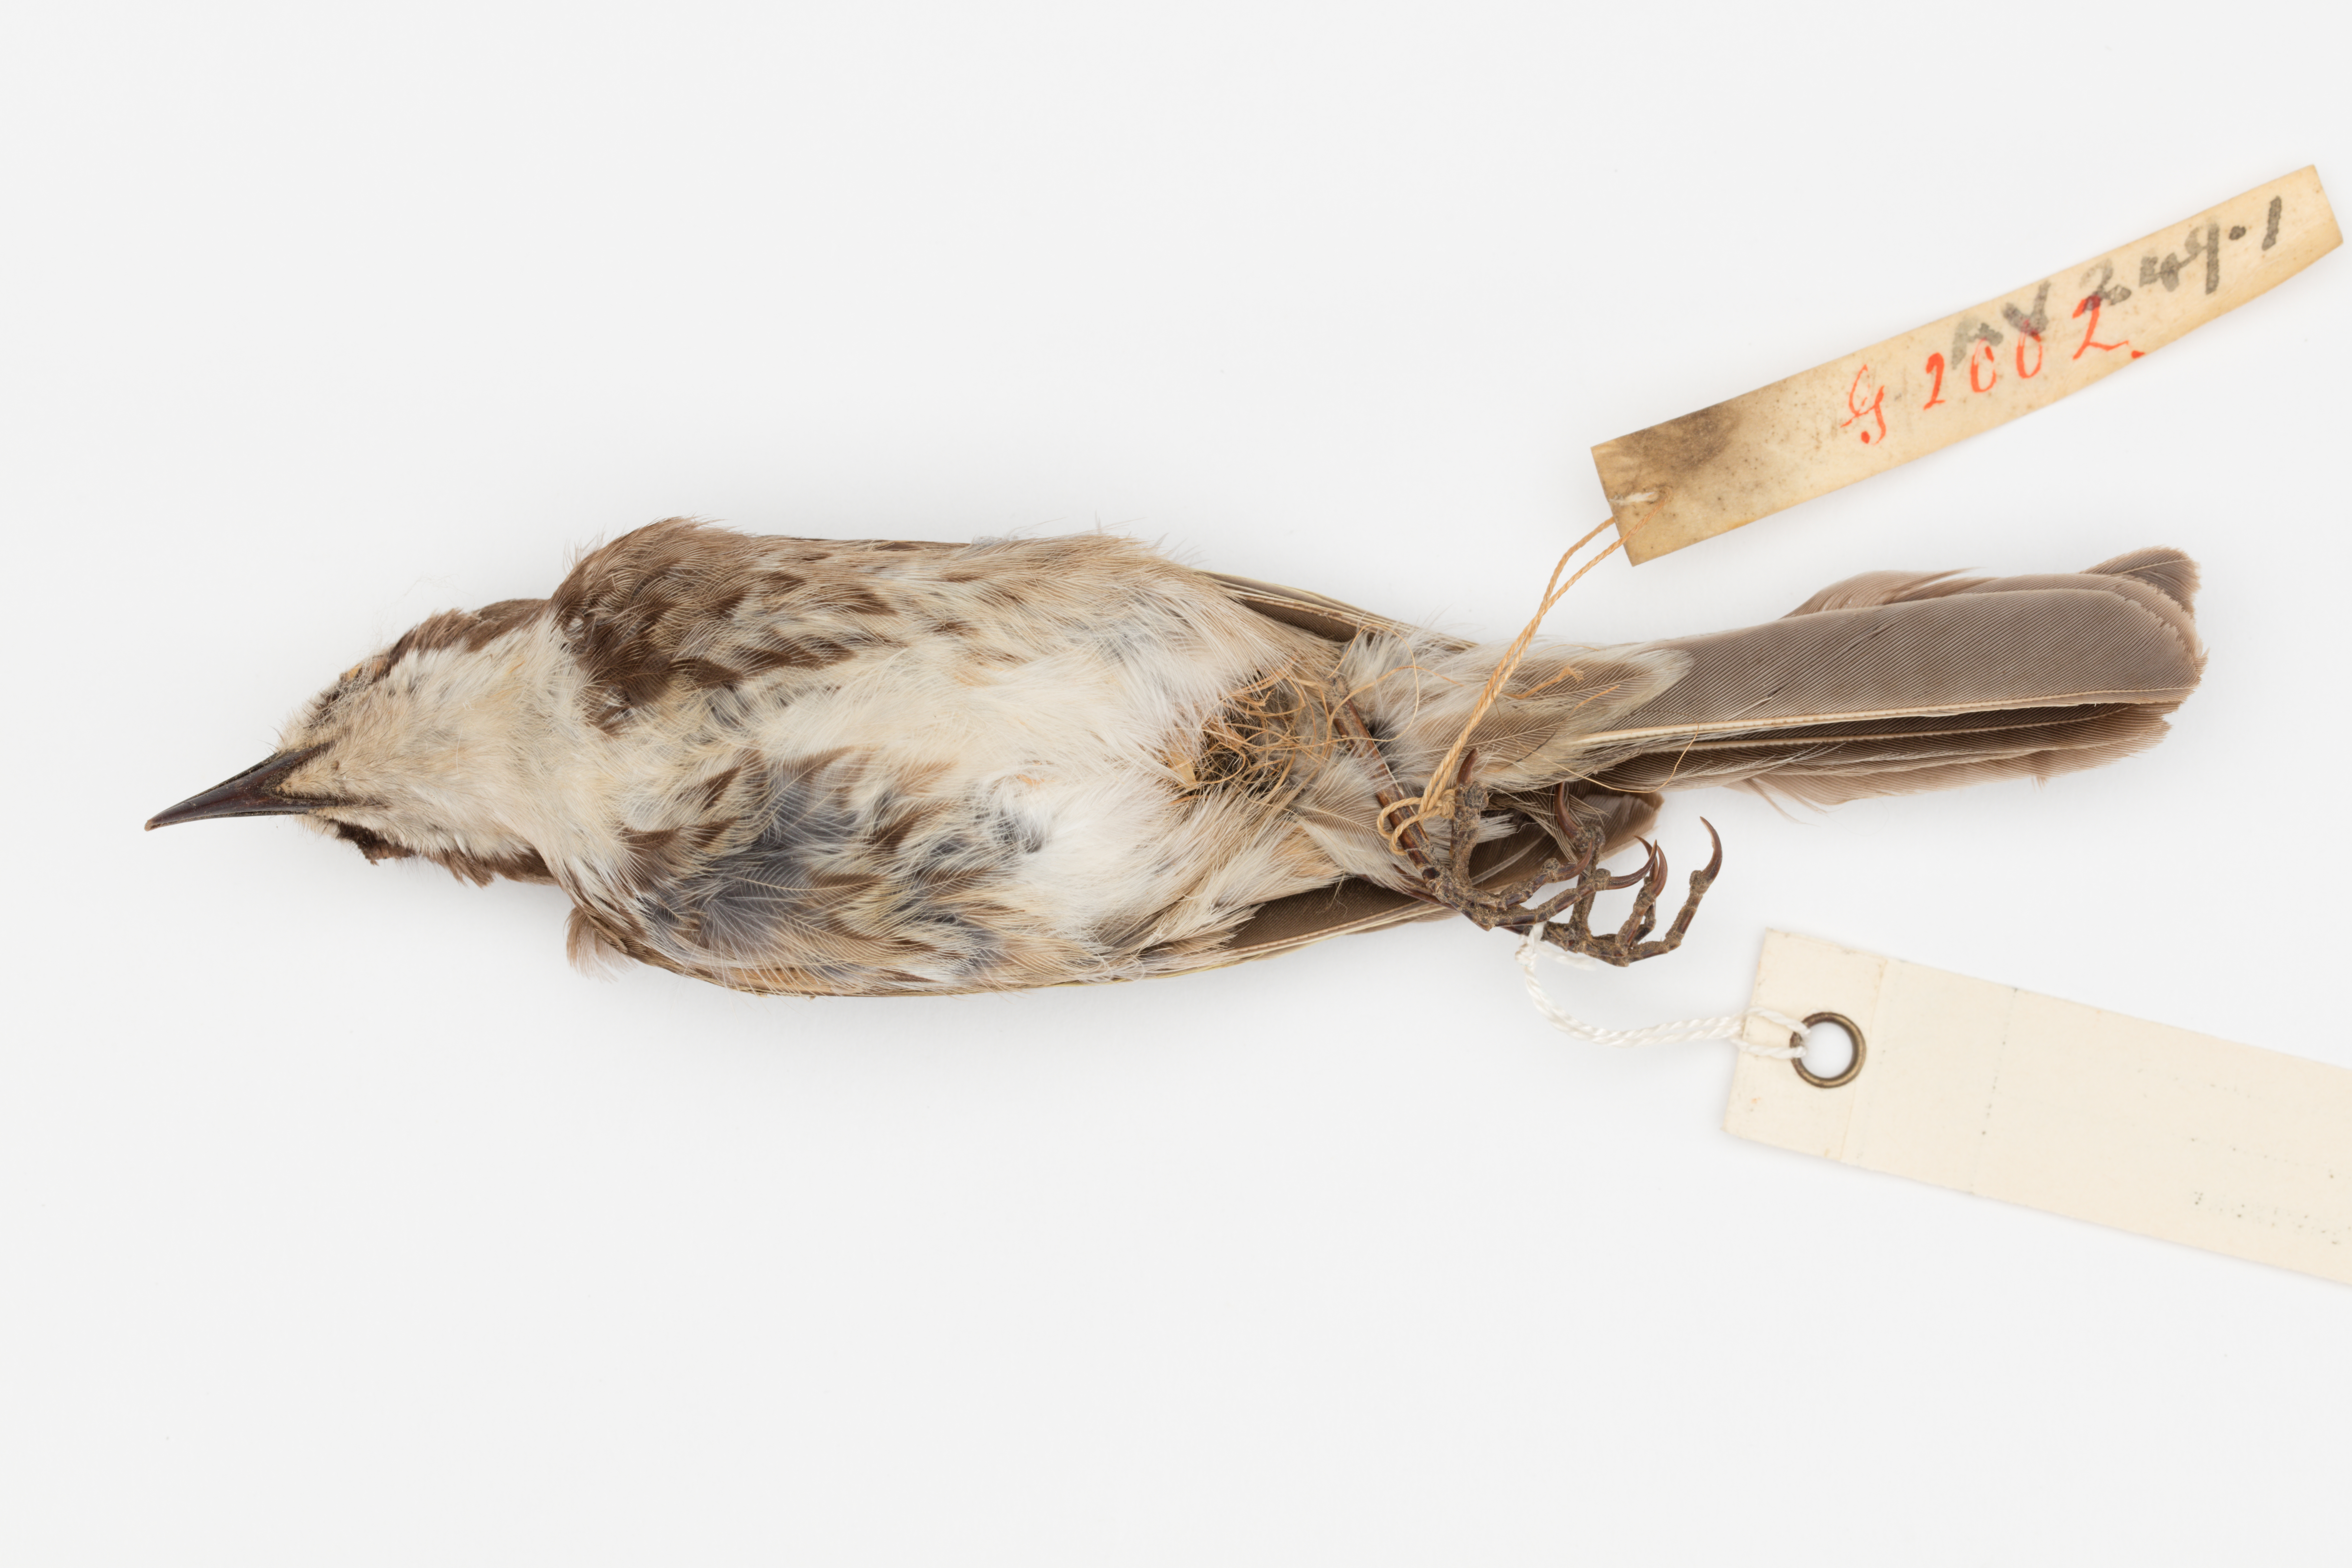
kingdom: Animalia
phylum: Chordata
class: Aves
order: Passeriformes
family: Meliphagidae
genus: Gliciphila
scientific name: Gliciphila melanops
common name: Tawny-crowned honeyeater
